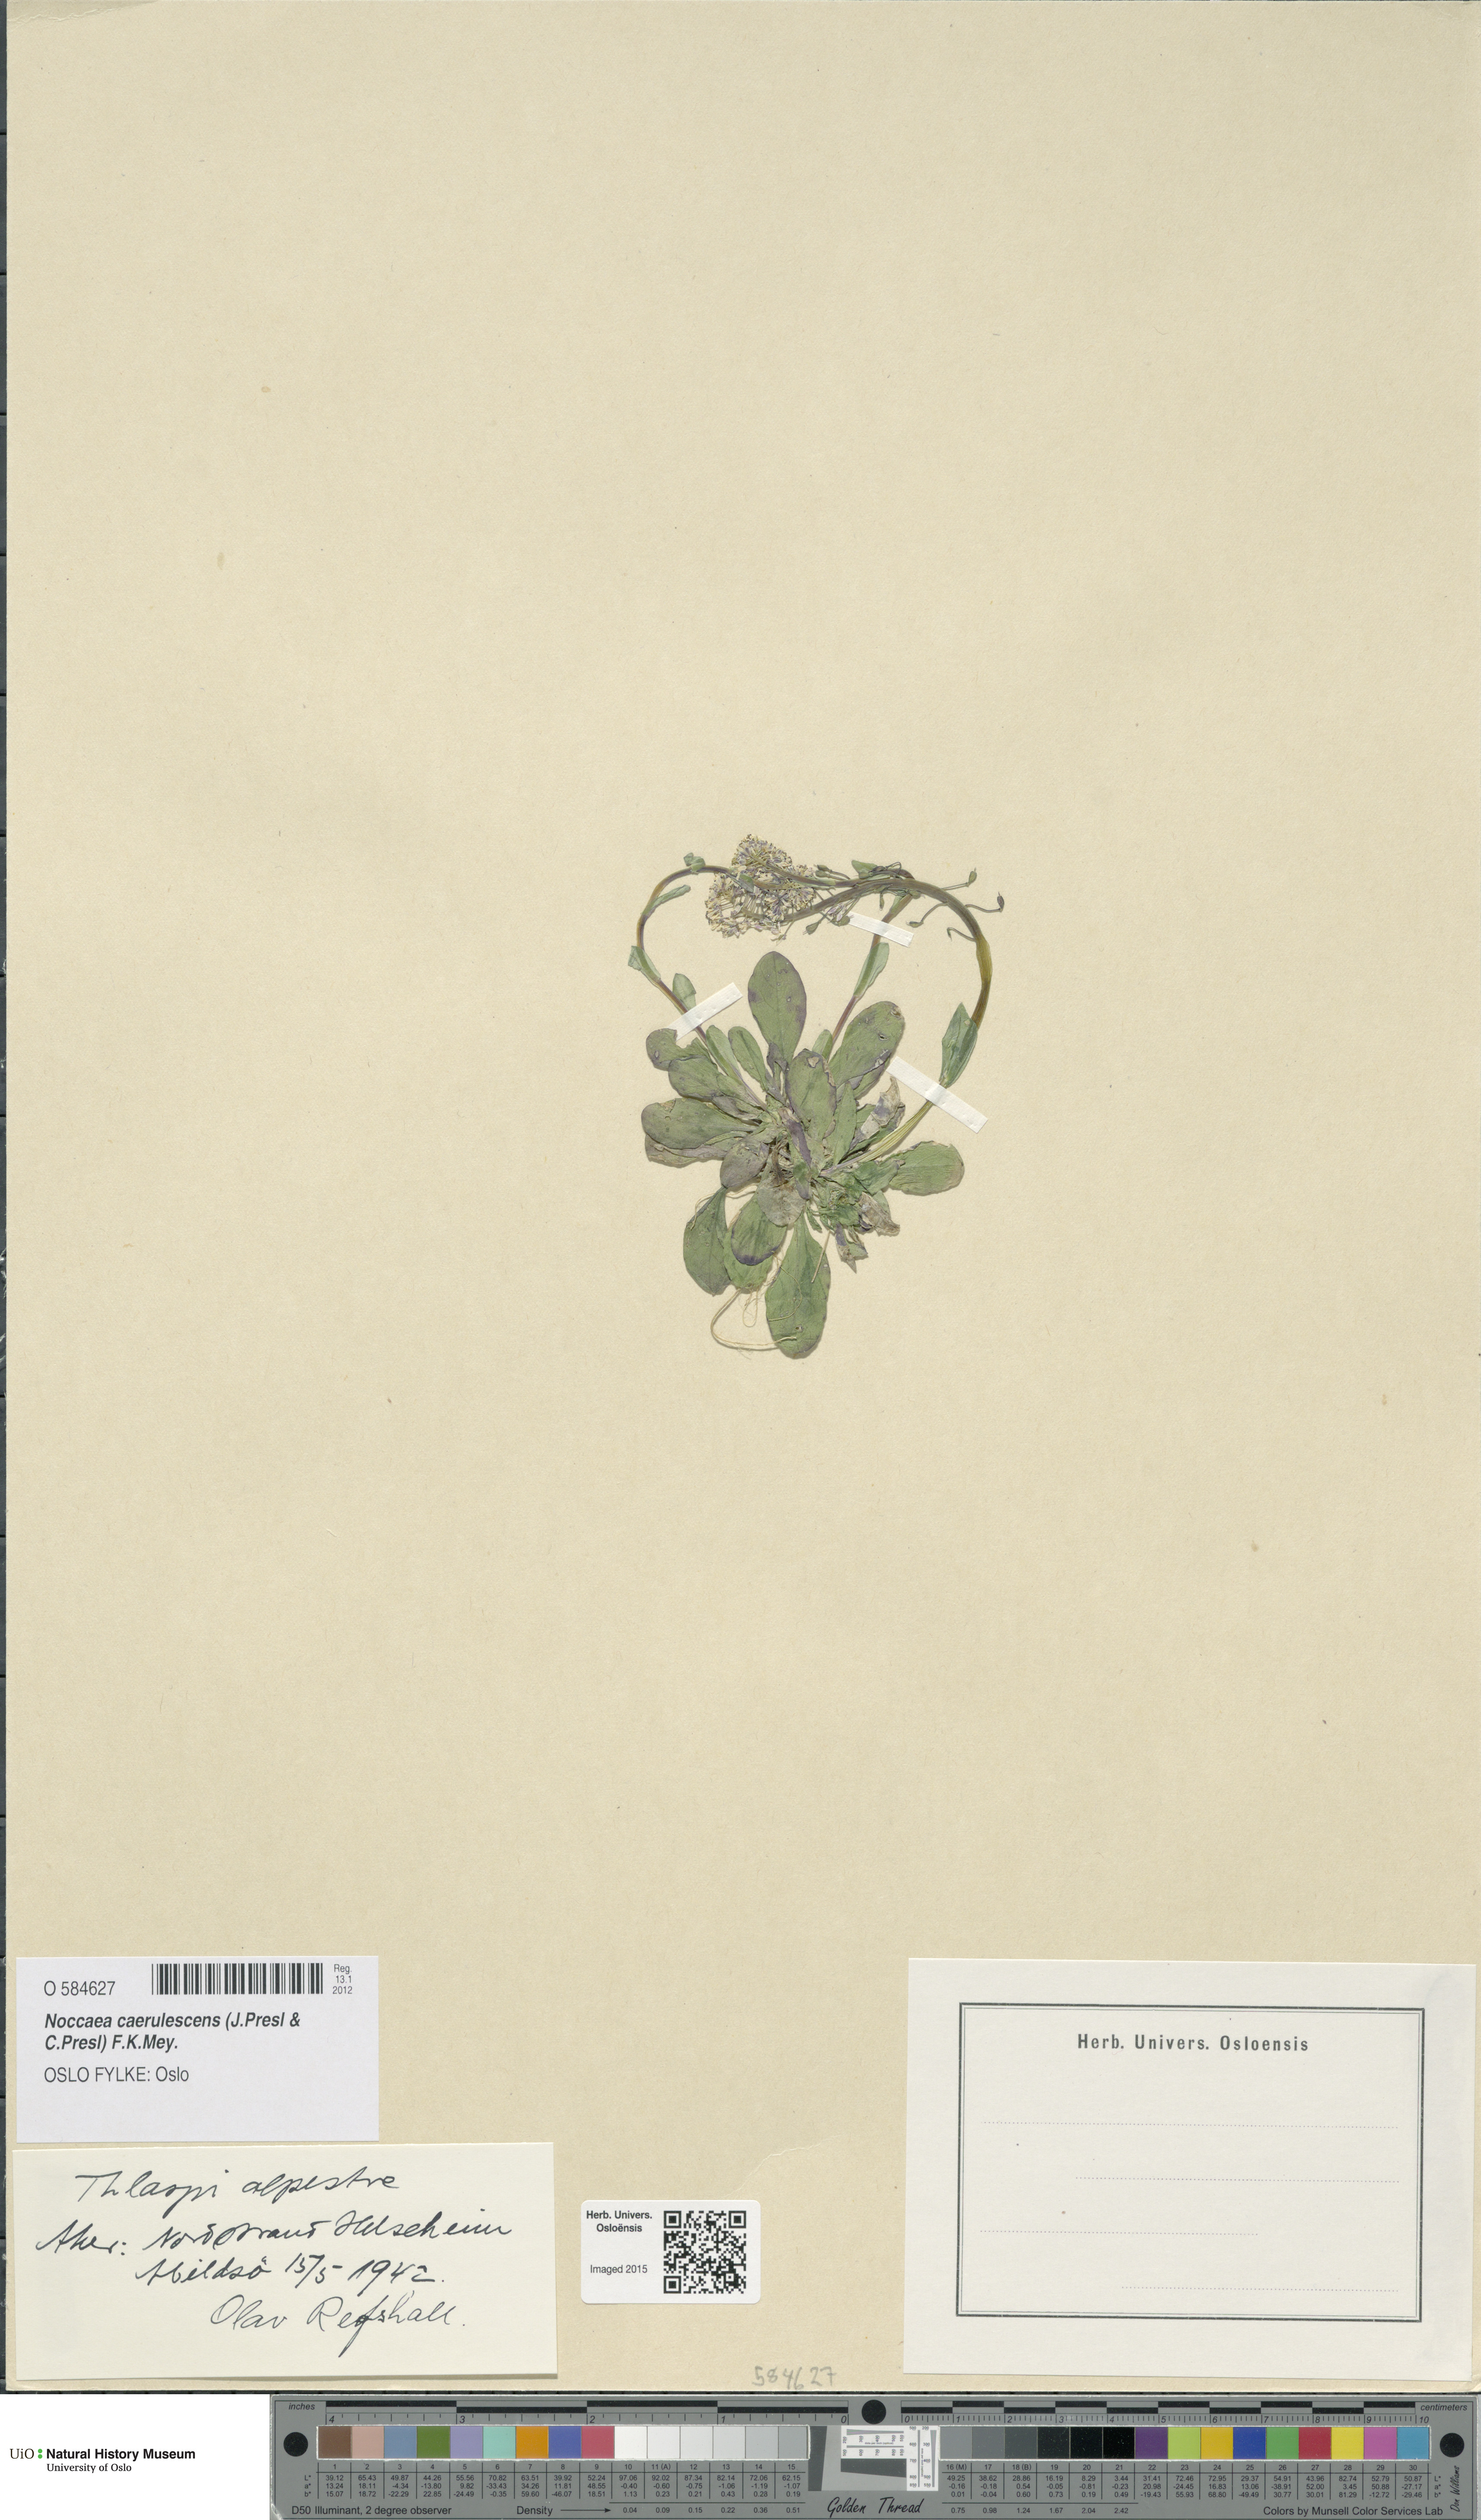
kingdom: Plantae
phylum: Tracheophyta
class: Magnoliopsida
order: Brassicales
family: Brassicaceae
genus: Noccaea
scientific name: Noccaea caerulescens
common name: Alpine pennycress
